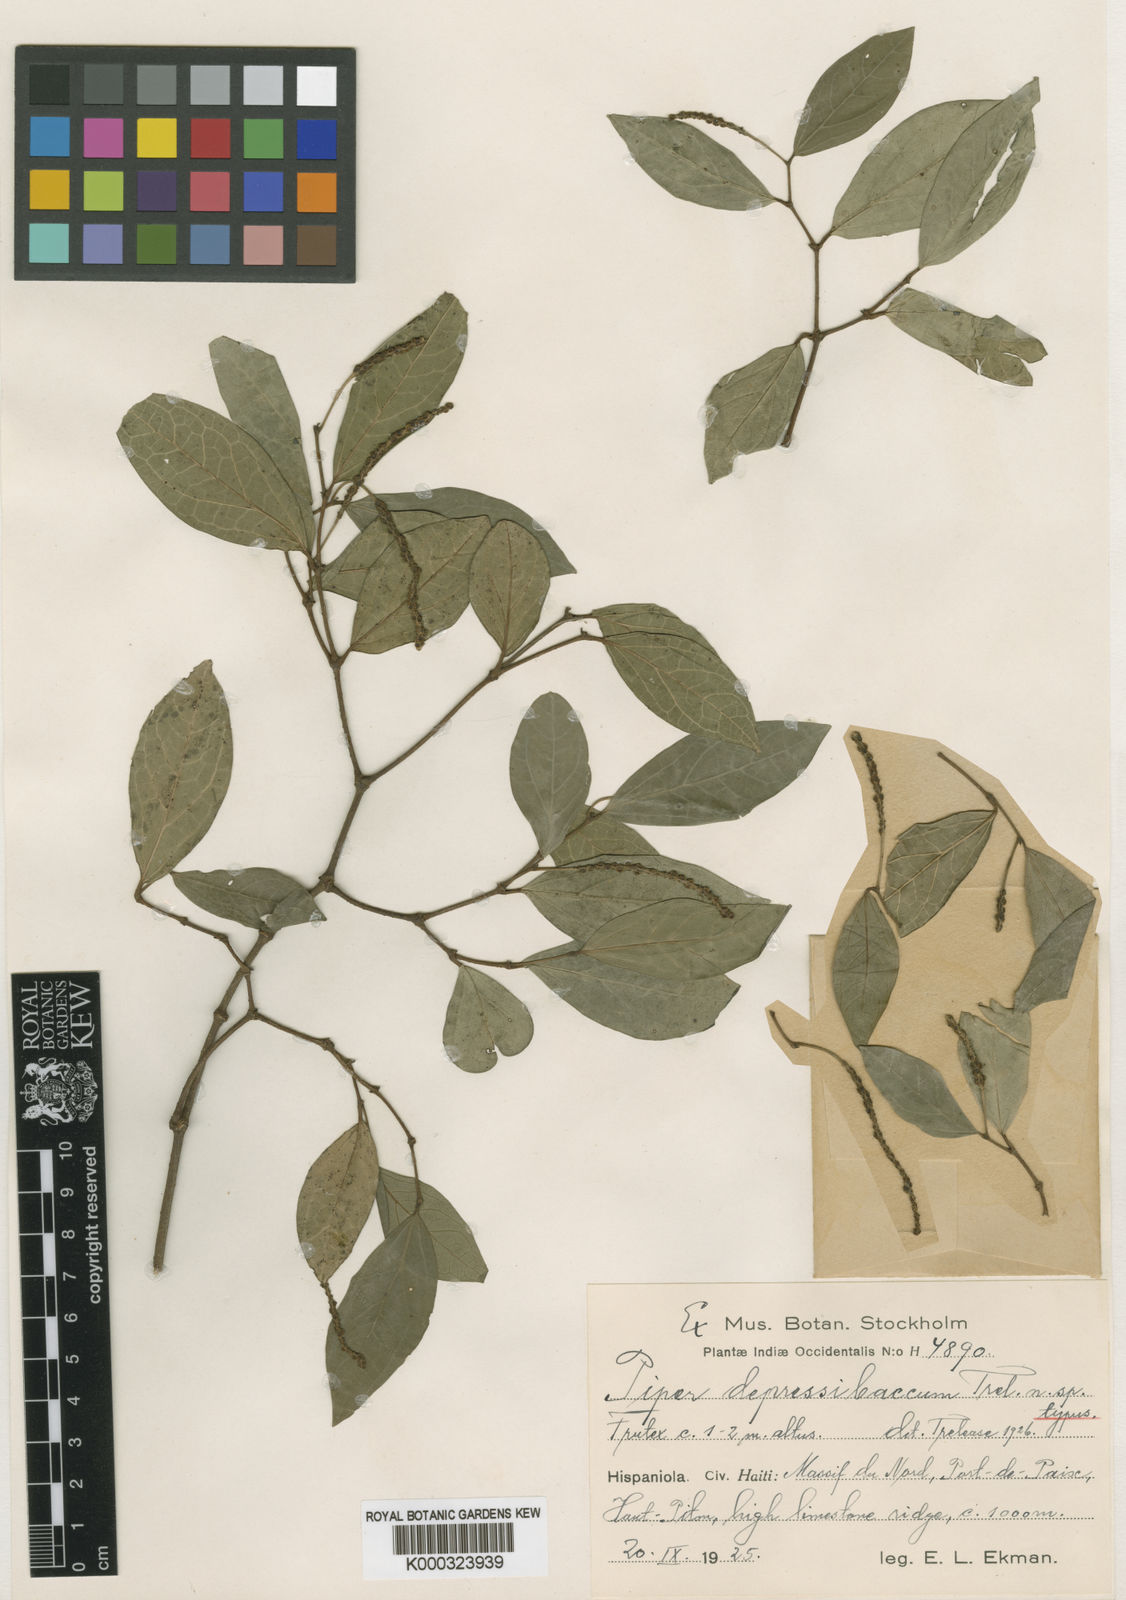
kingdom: Plantae
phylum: Tracheophyta
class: Magnoliopsida
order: Piperales
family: Piperaceae
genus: Piper
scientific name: Piper depressibaccum
